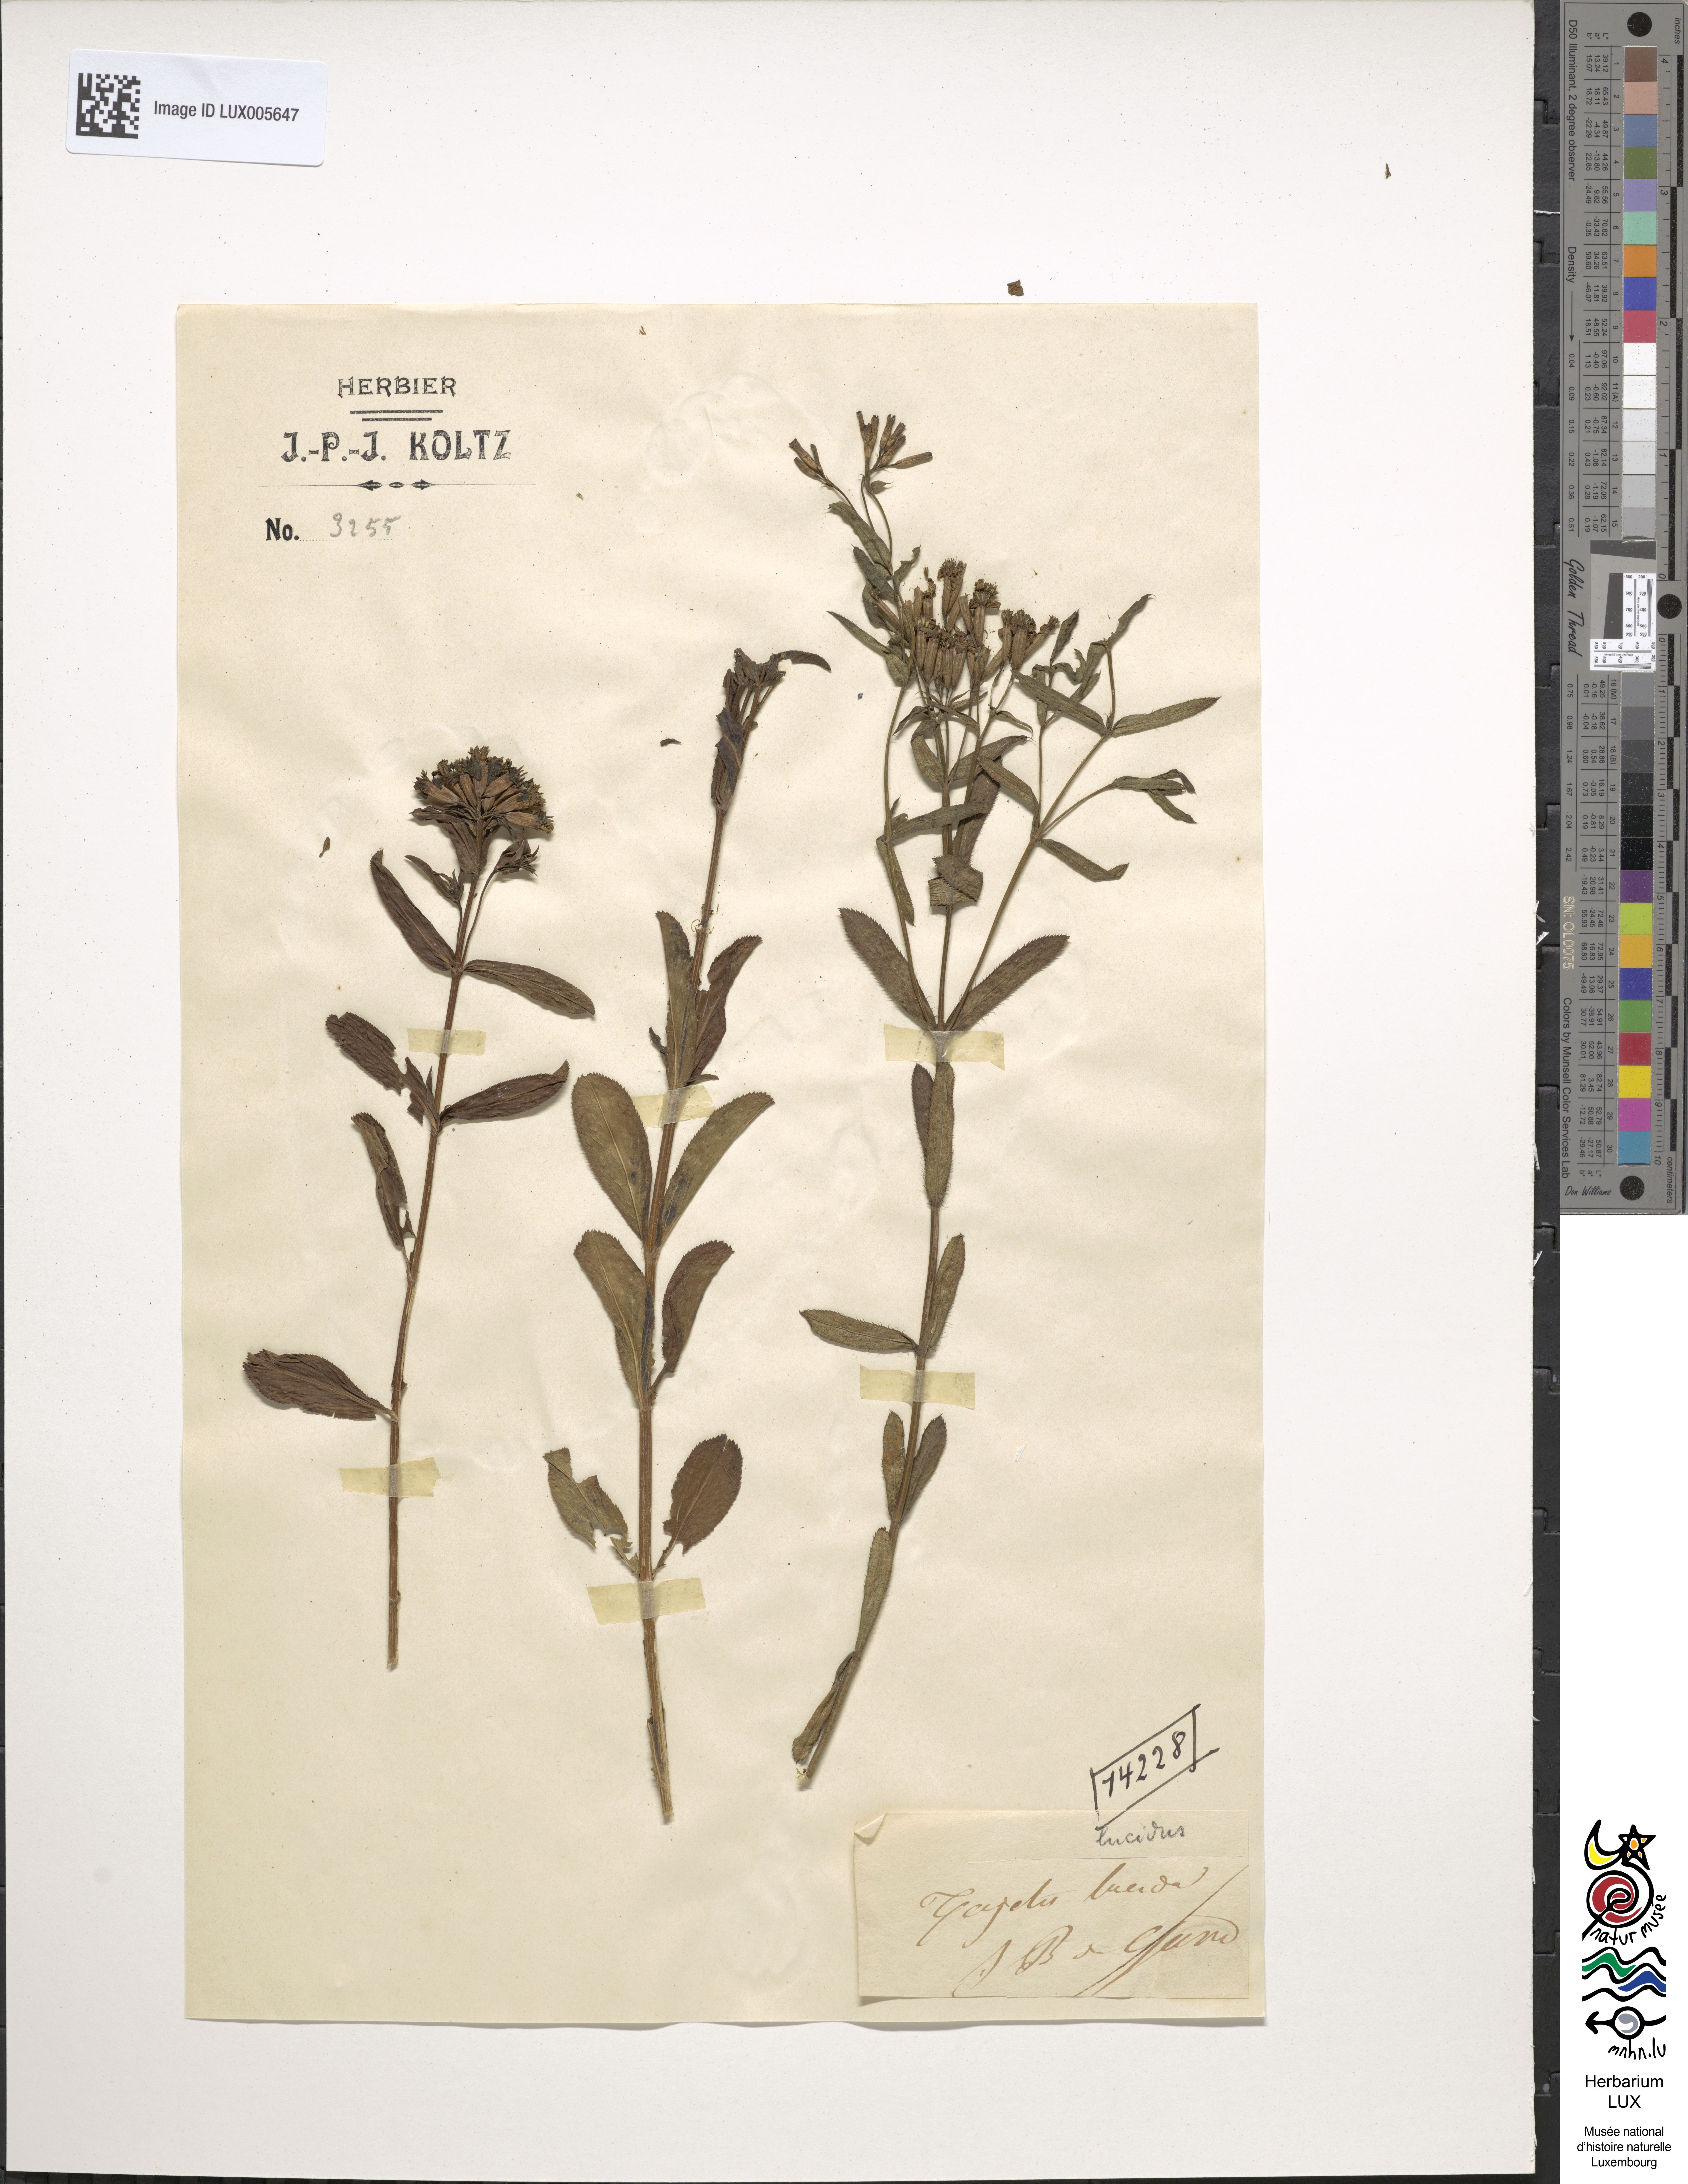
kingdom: Plantae
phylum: Tracheophyta
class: Magnoliopsida
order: Asterales
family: Asteraceae
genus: Tagetes
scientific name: Tagetes lucida
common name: Sweetscented marigold
